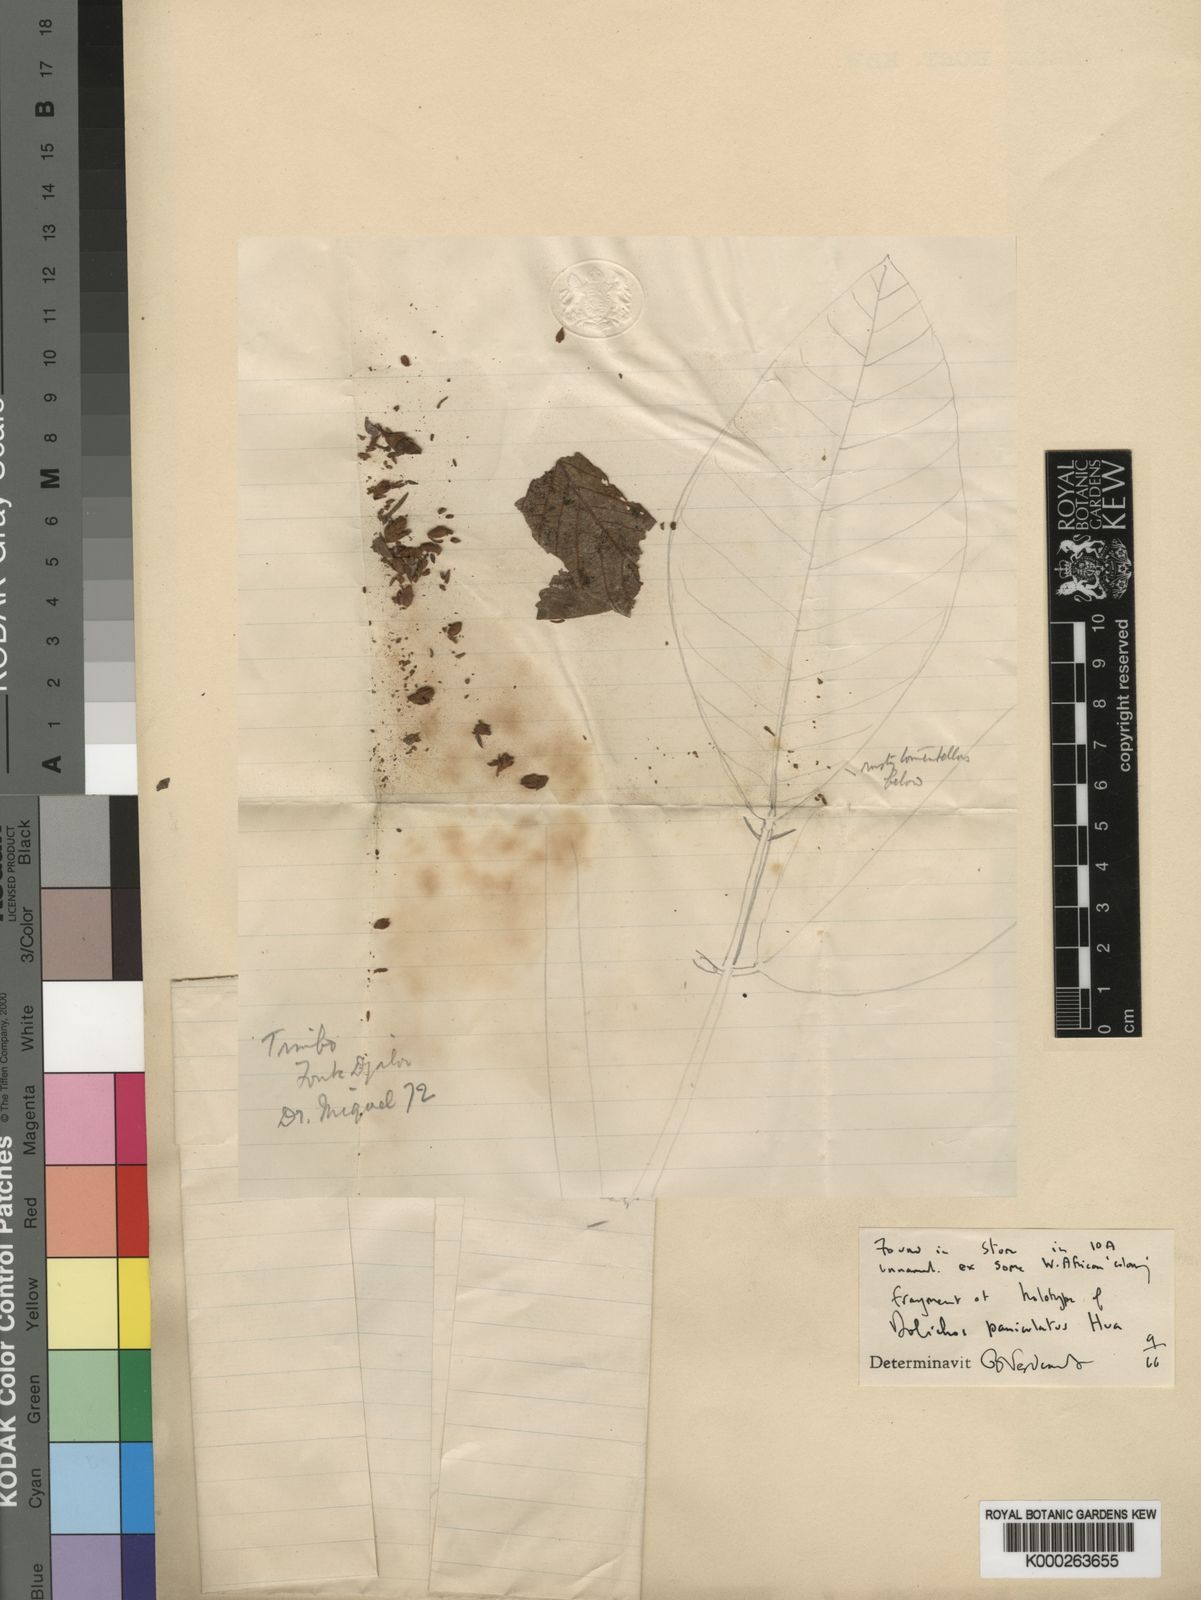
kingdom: Plantae
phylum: Tracheophyta
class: Magnoliopsida
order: Fabales
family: Fabaceae
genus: Adenodolichos
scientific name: Adenodolichos paniculatus
